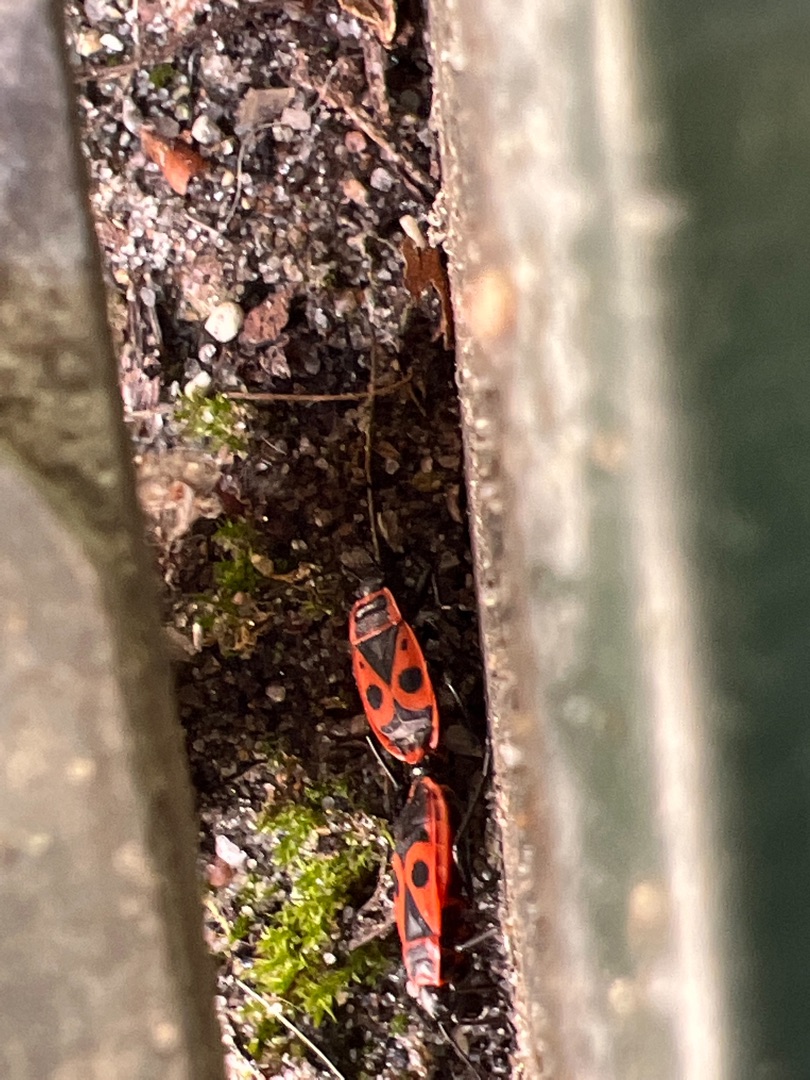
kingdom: Animalia
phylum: Arthropoda
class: Insecta
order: Hemiptera
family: Pyrrhocoridae
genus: Pyrrhocoris
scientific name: Pyrrhocoris apterus
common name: Ildtæge
